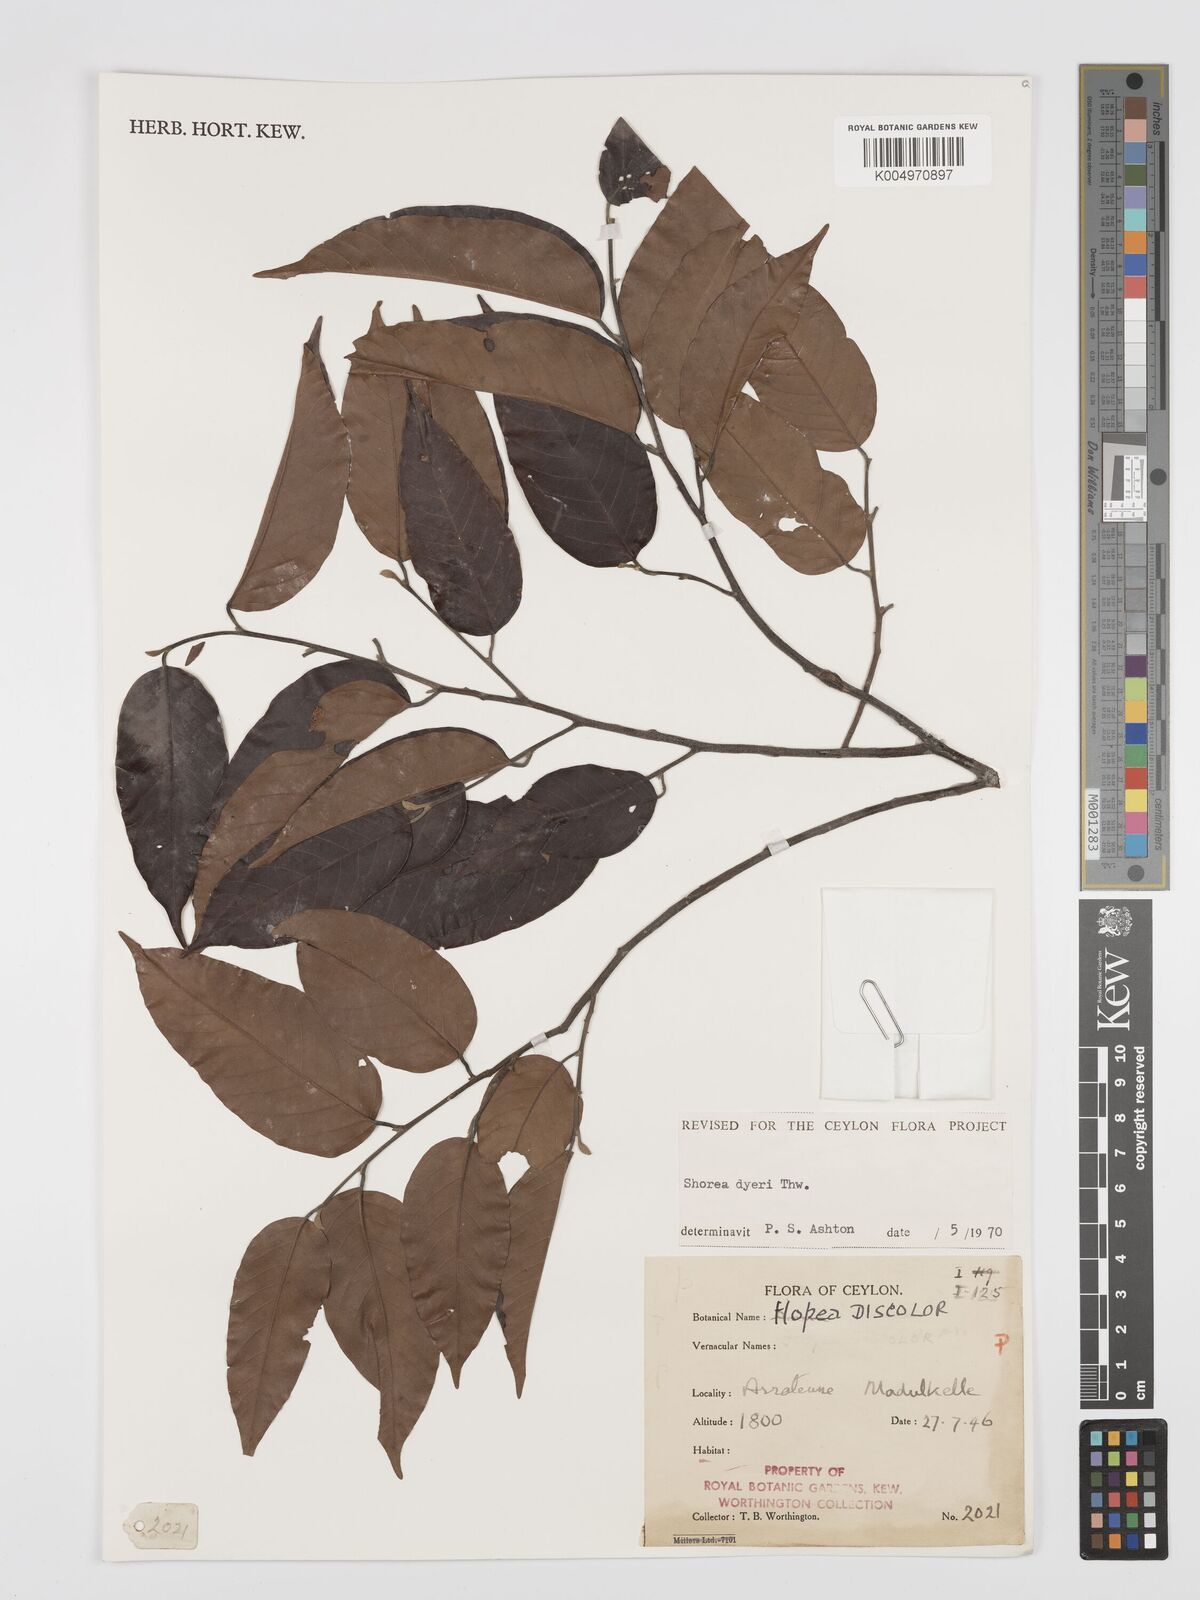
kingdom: Plantae
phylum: Tracheophyta
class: Magnoliopsida
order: Malvales
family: Dipterocarpaceae
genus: Shorea
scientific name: Shorea dyeri
